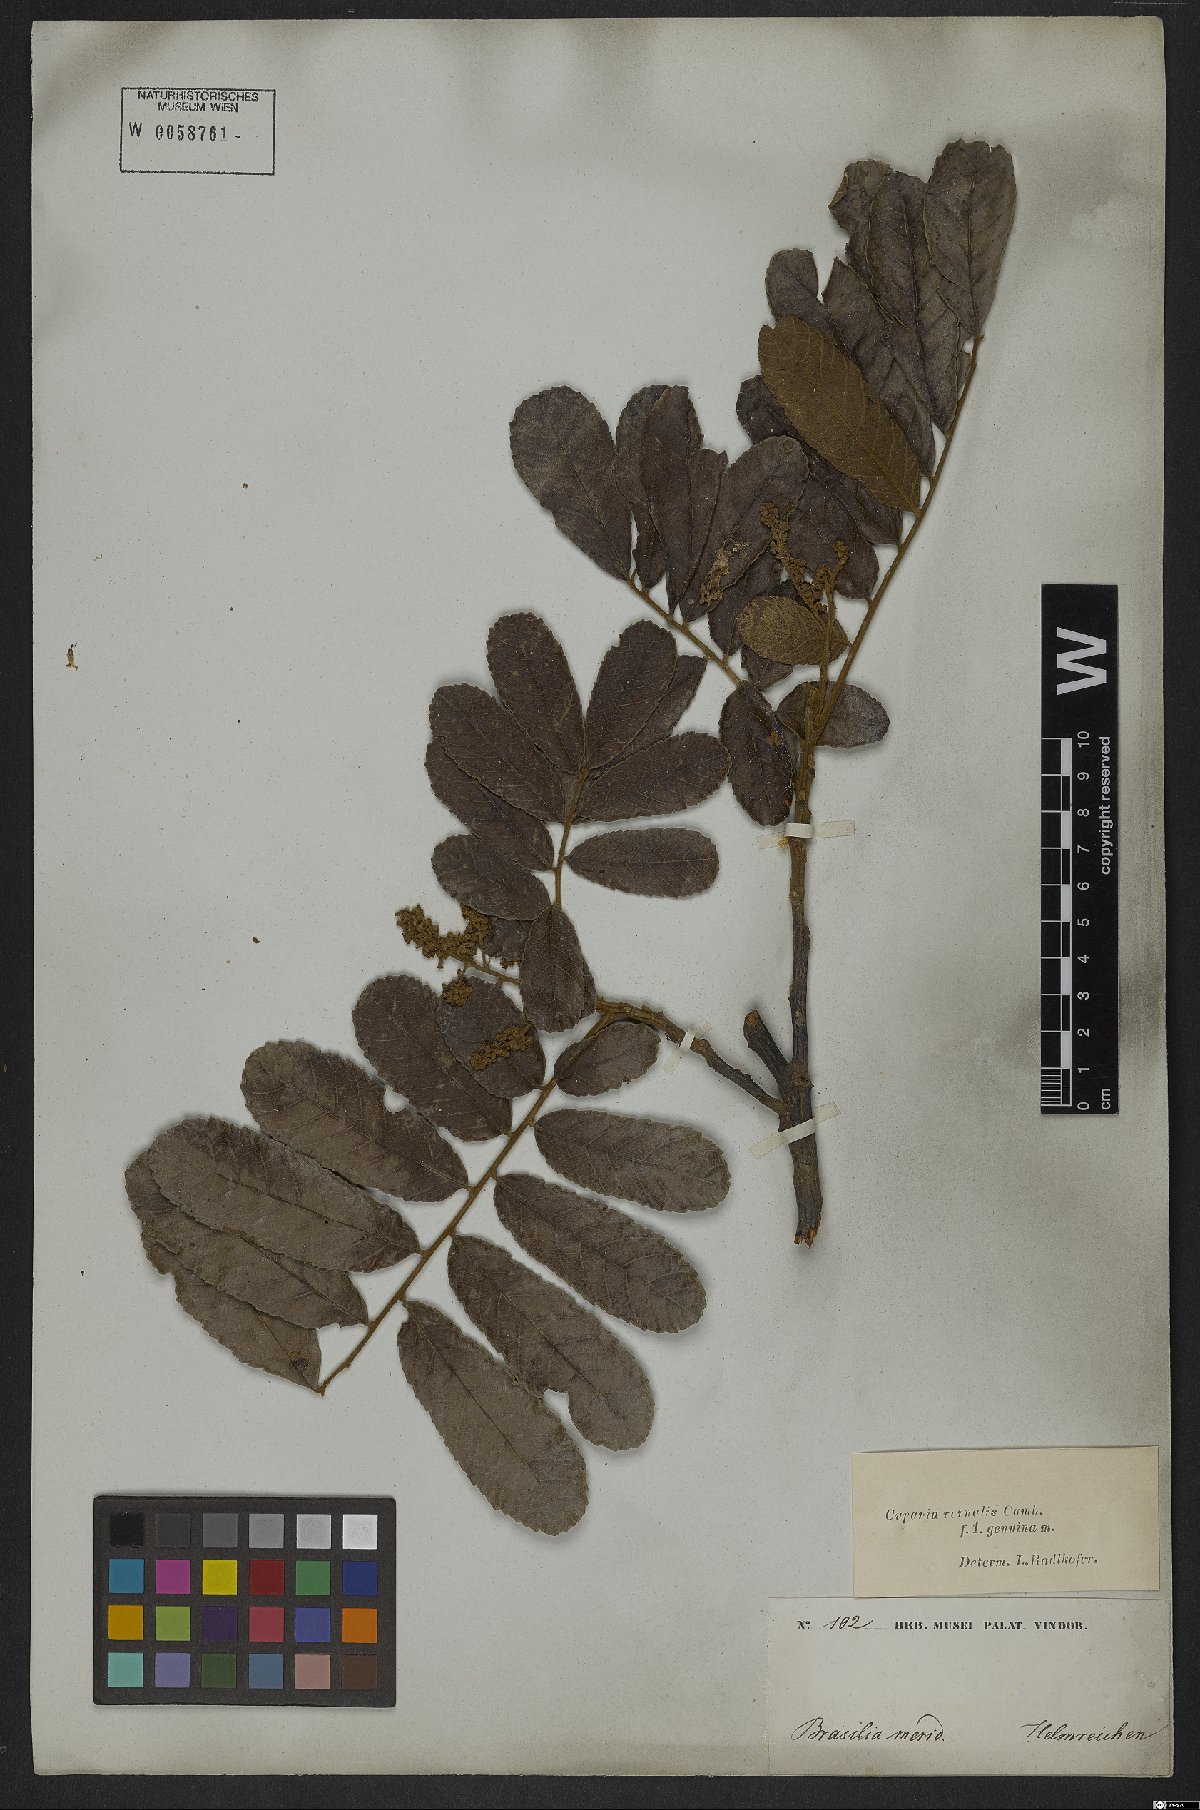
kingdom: Plantae
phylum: Tracheophyta
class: Magnoliopsida
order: Sapindales
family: Sapindaceae
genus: Cupania
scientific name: Cupania vernalis
